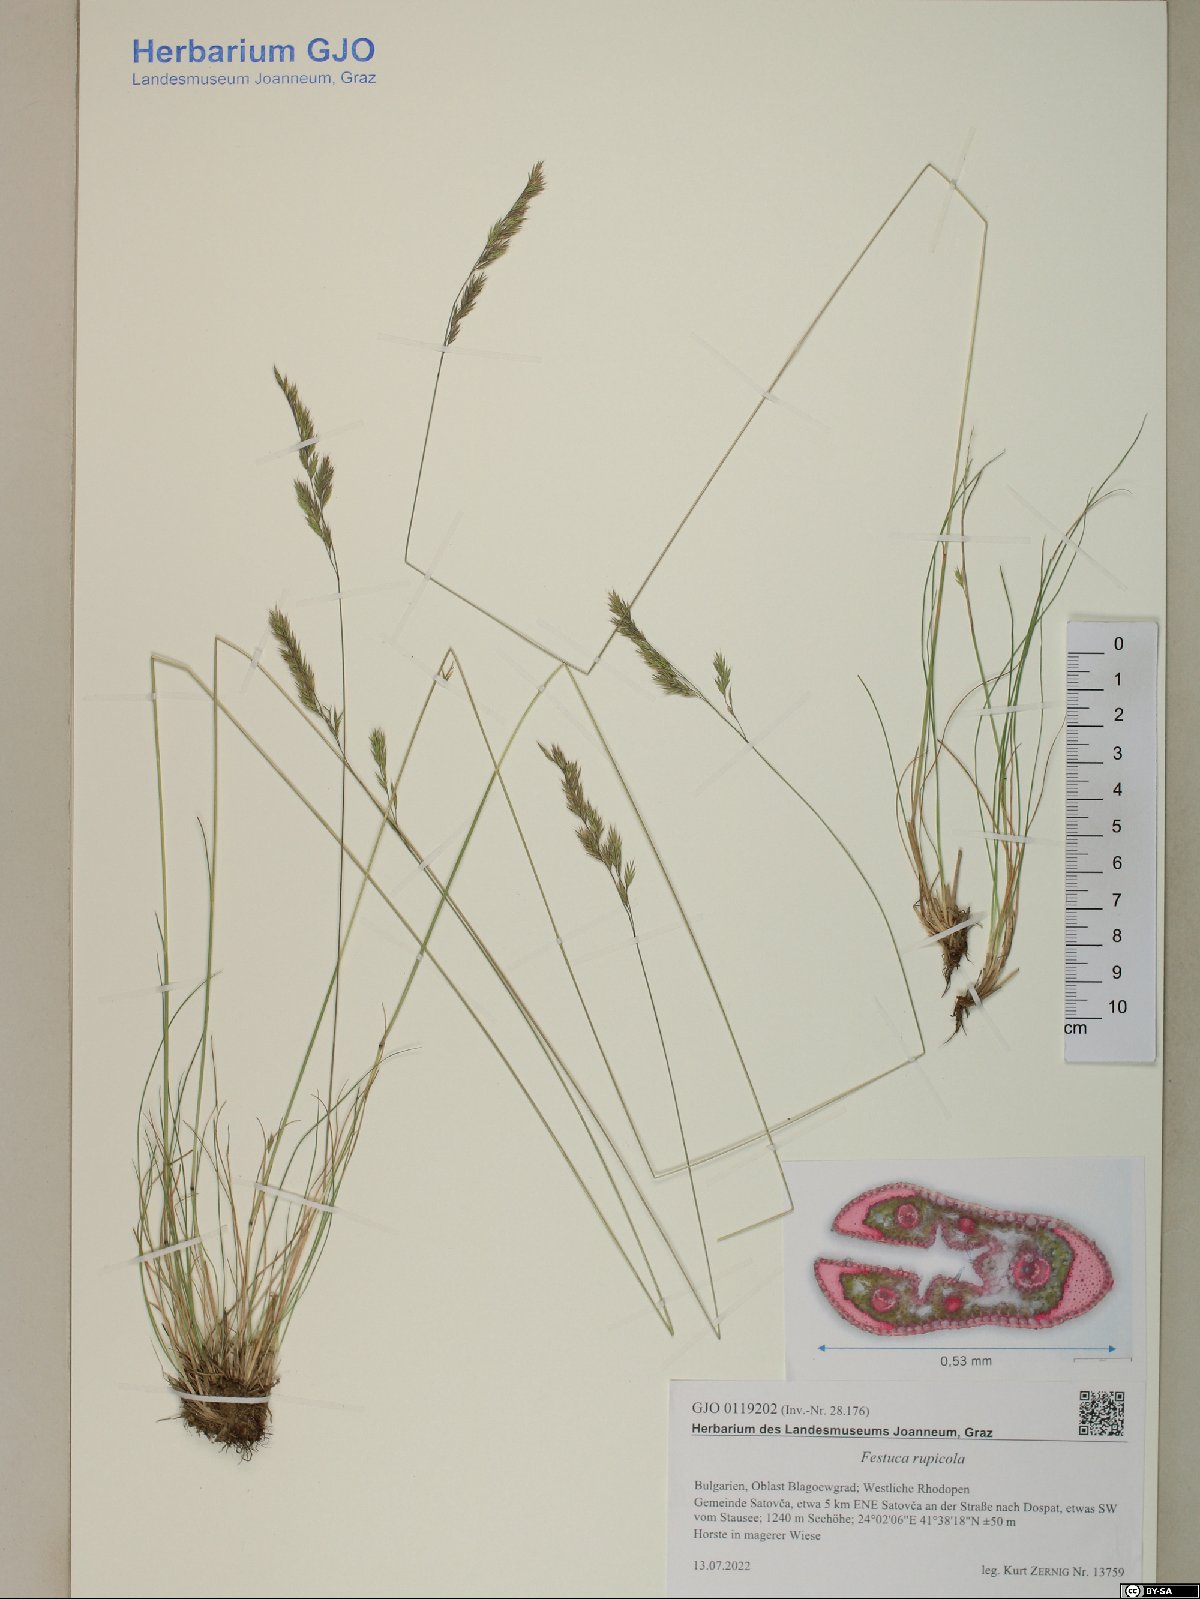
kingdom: Plantae
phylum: Tracheophyta
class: Liliopsida
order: Poales
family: Poaceae
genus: Festuca
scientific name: Festuca rupicola
